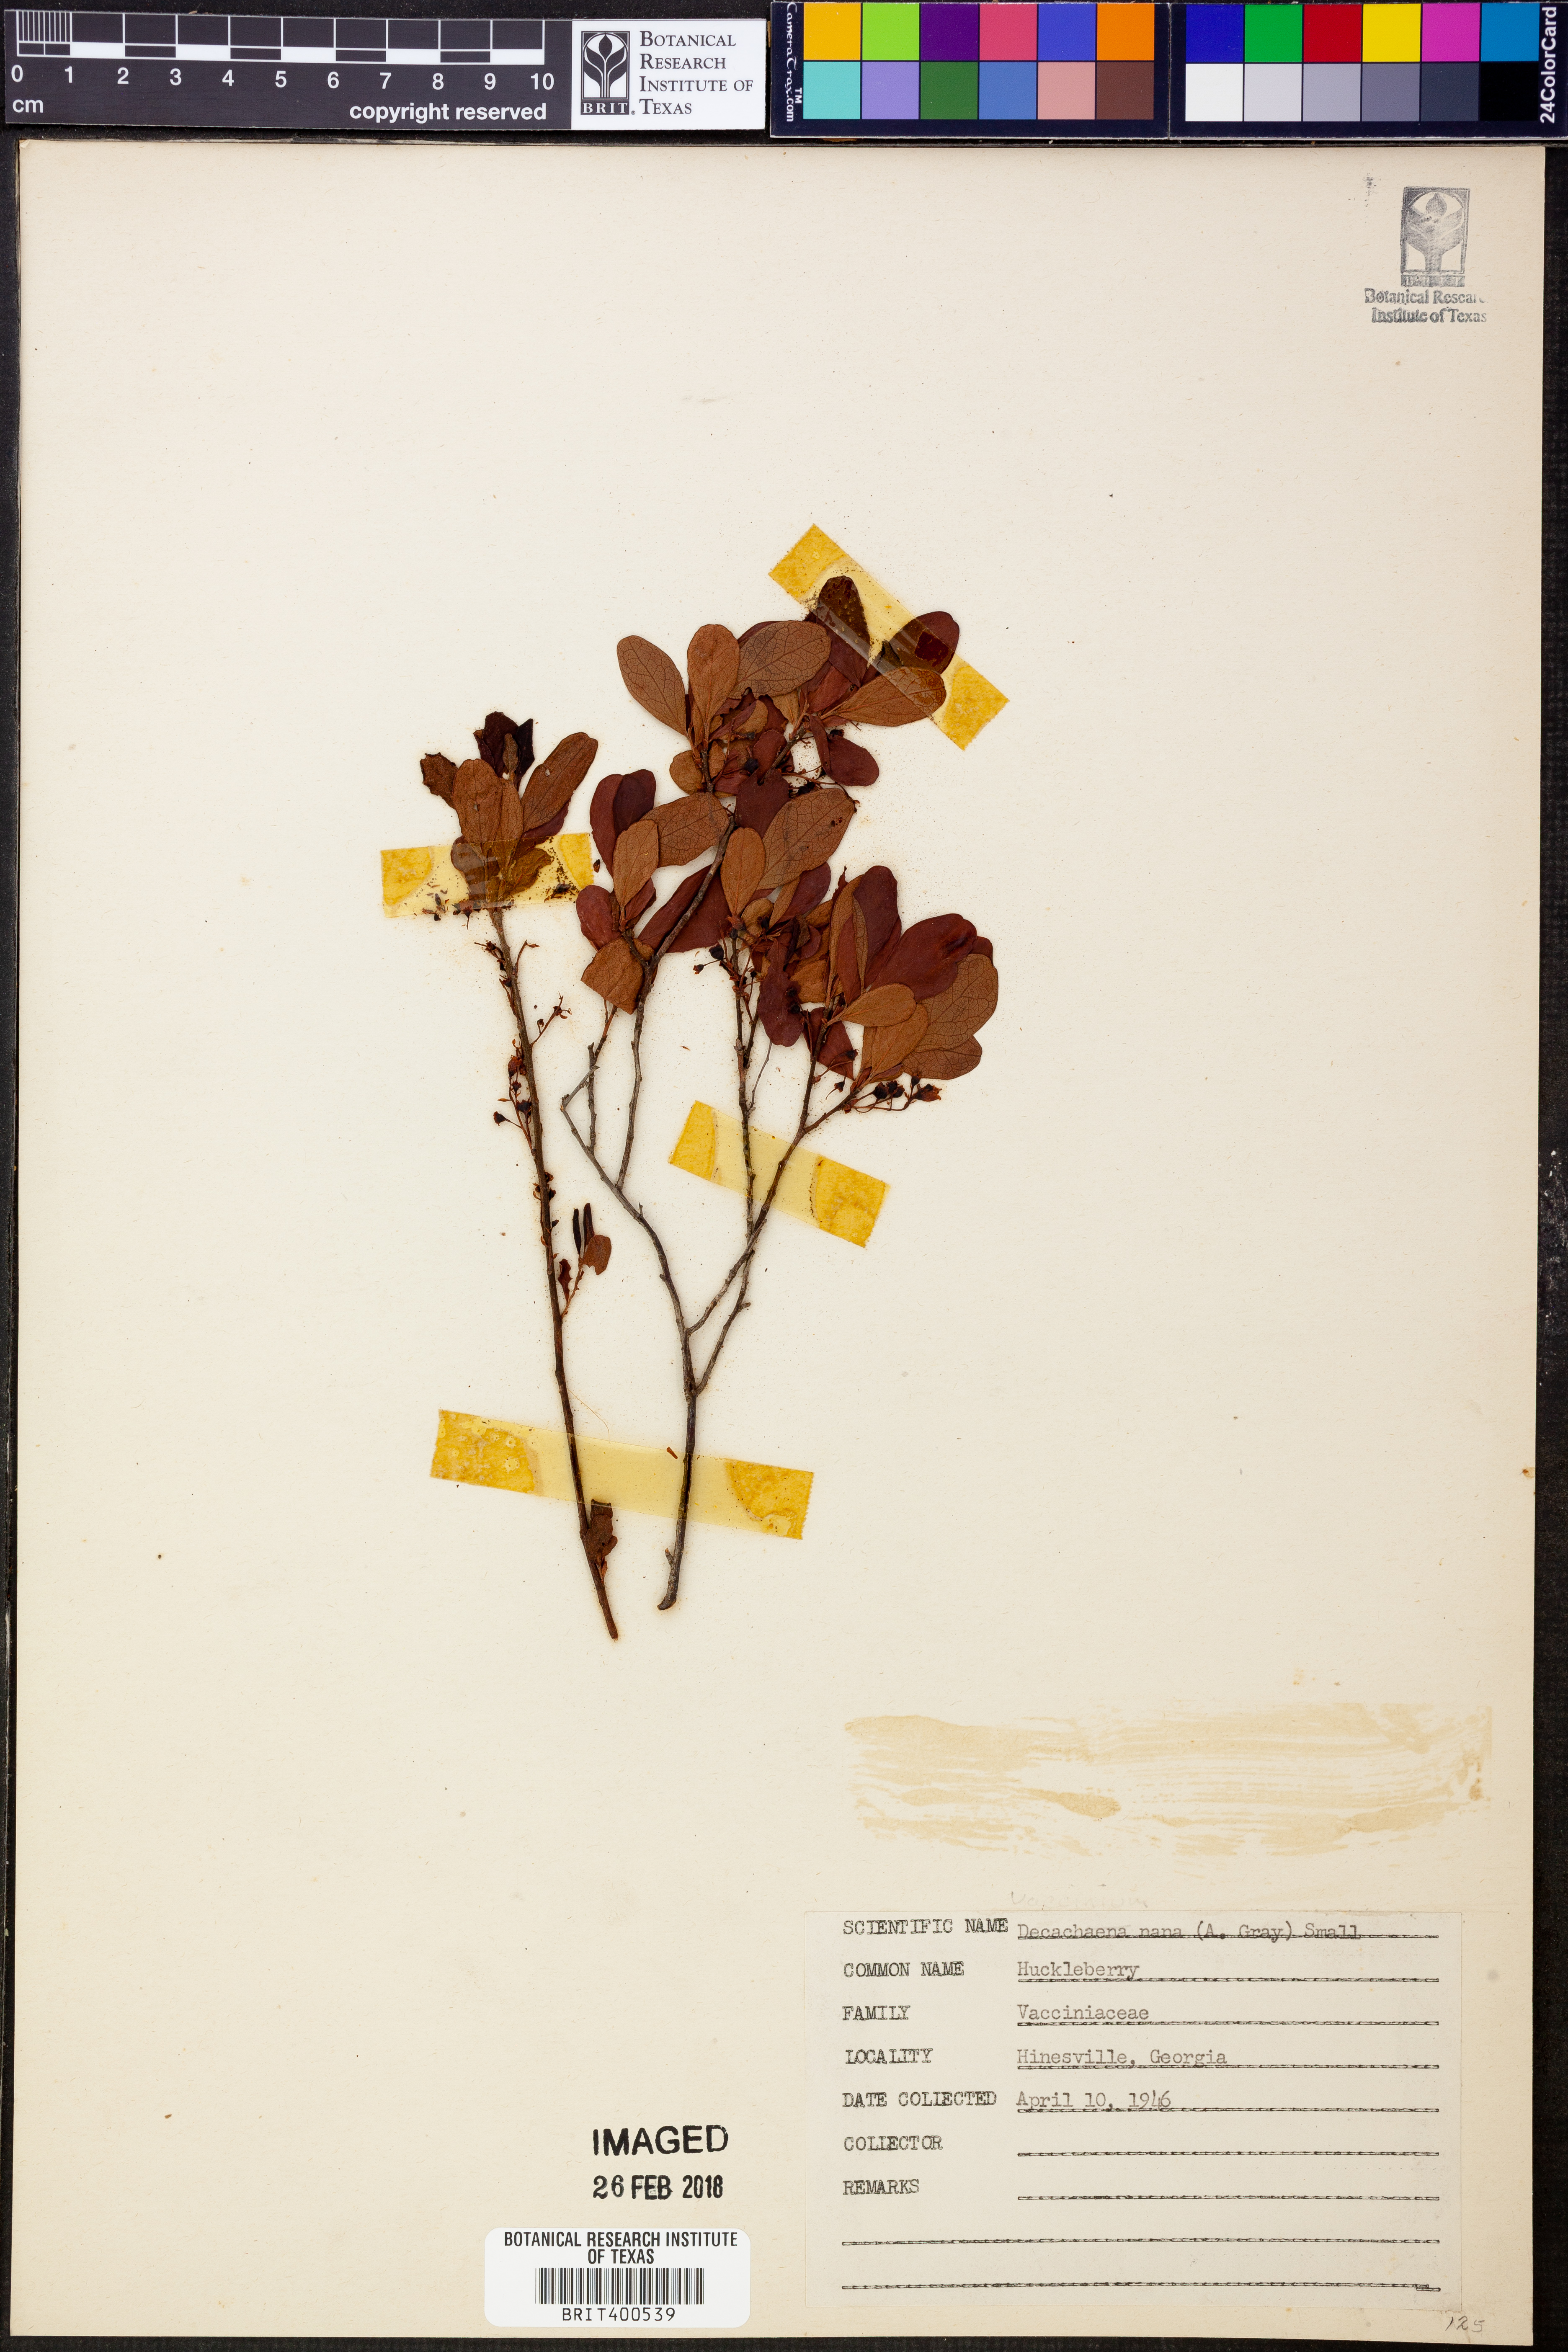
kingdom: Plantae
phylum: Tracheophyta
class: Magnoliopsida
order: Ericales
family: Ericaceae
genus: Gaylussacia
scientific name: Gaylussacia nana
